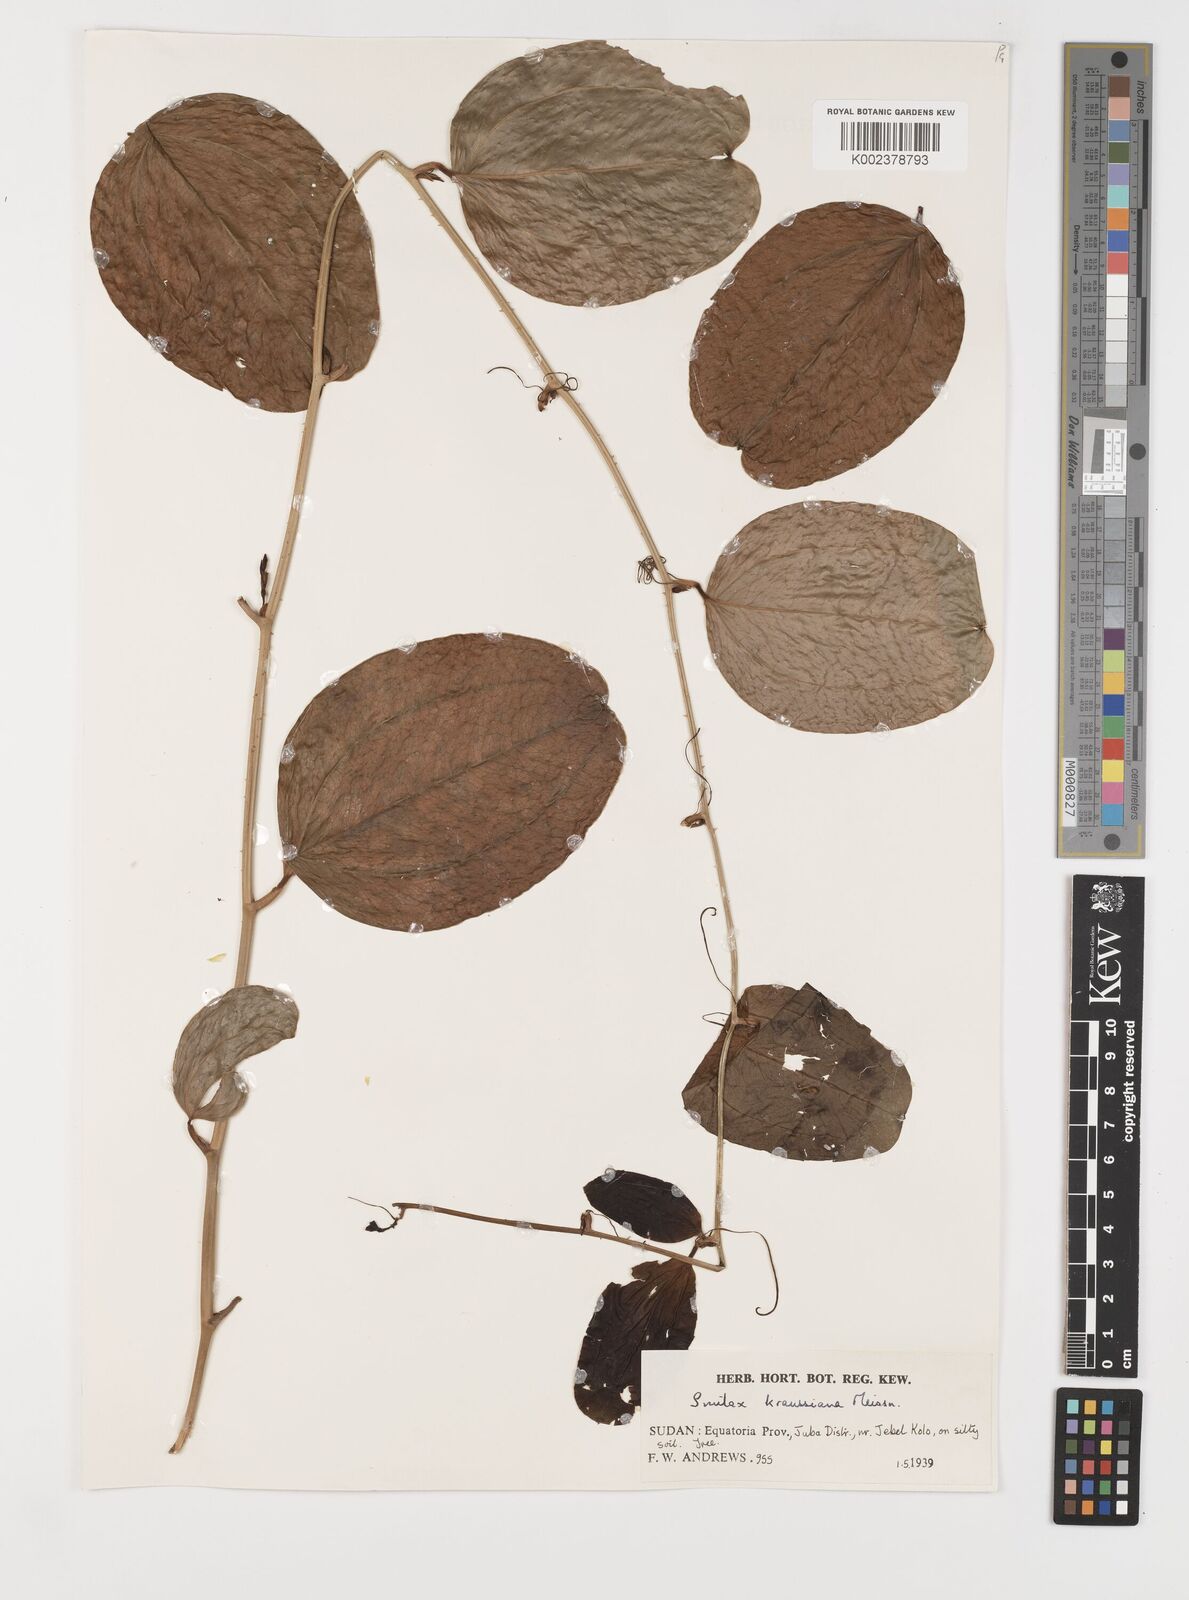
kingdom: Plantae
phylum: Tracheophyta
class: Liliopsida
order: Liliales
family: Smilacaceae
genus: Smilax
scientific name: Smilax anceps
